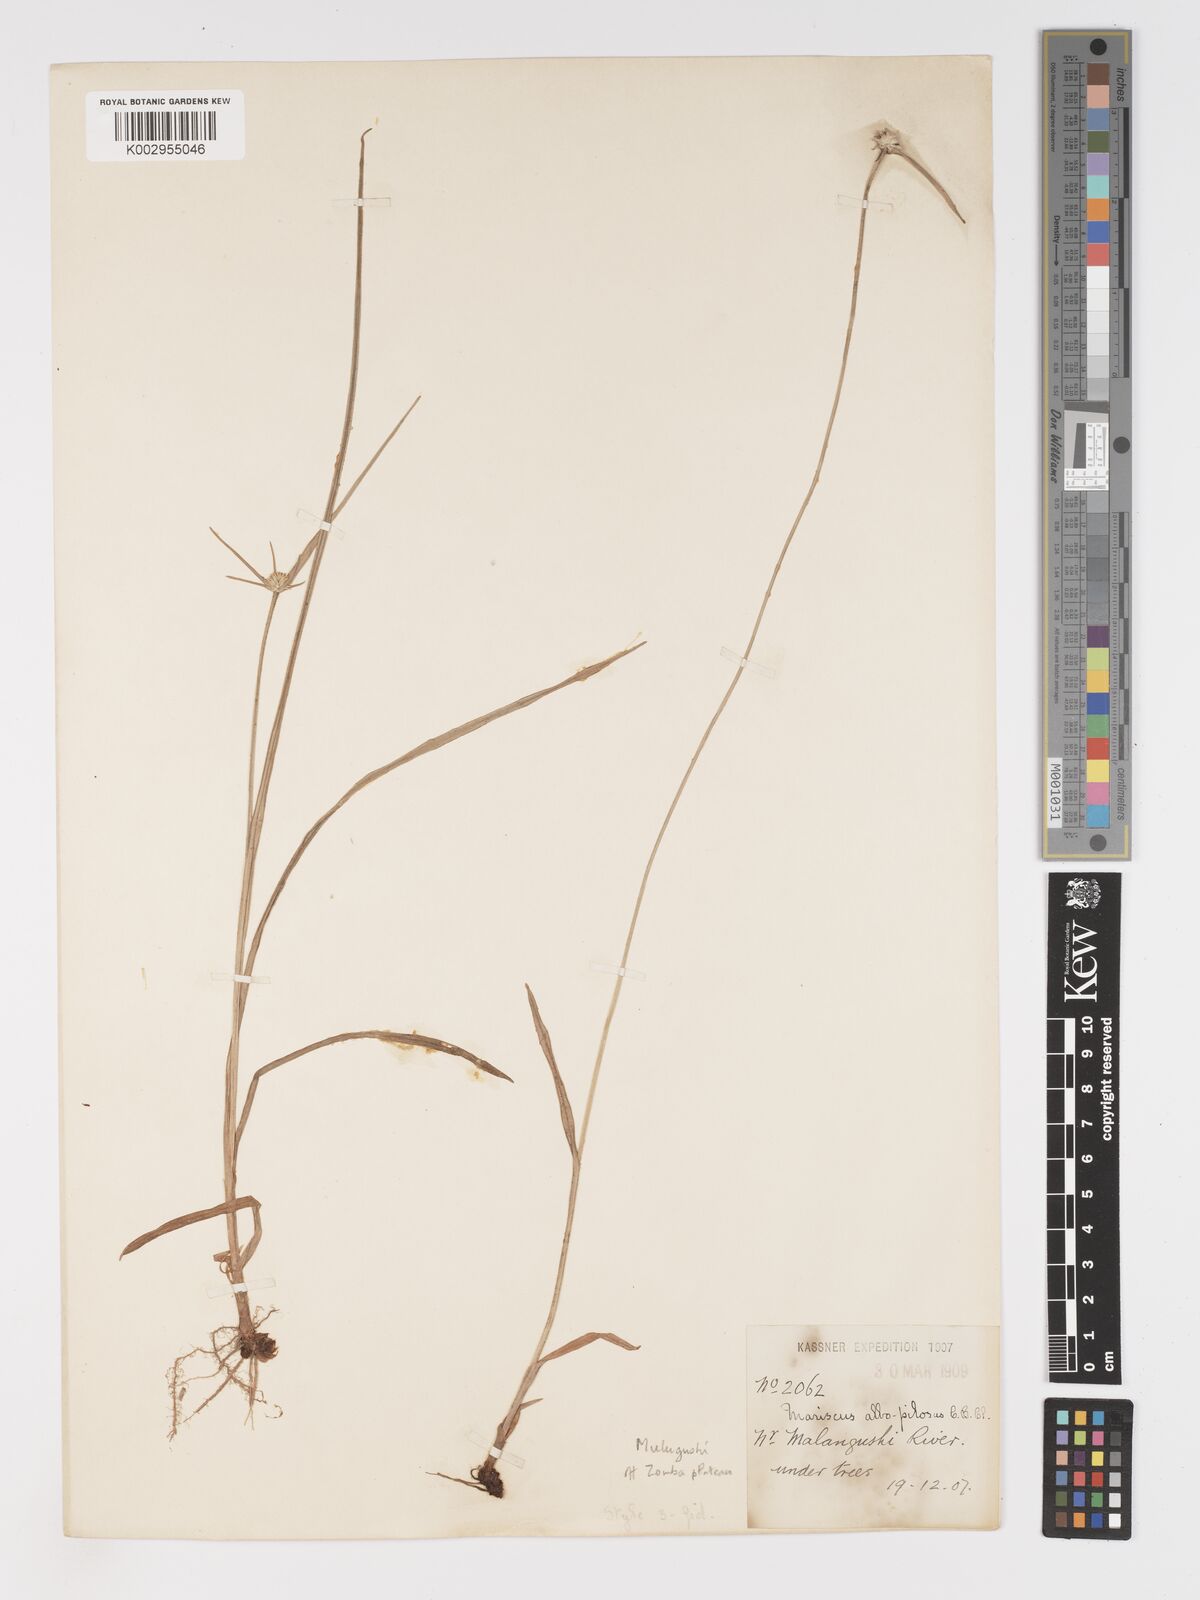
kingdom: Plantae
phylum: Tracheophyta
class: Liliopsida
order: Poales
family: Cyperaceae
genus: Cyperus
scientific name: Cyperus albopilosus
